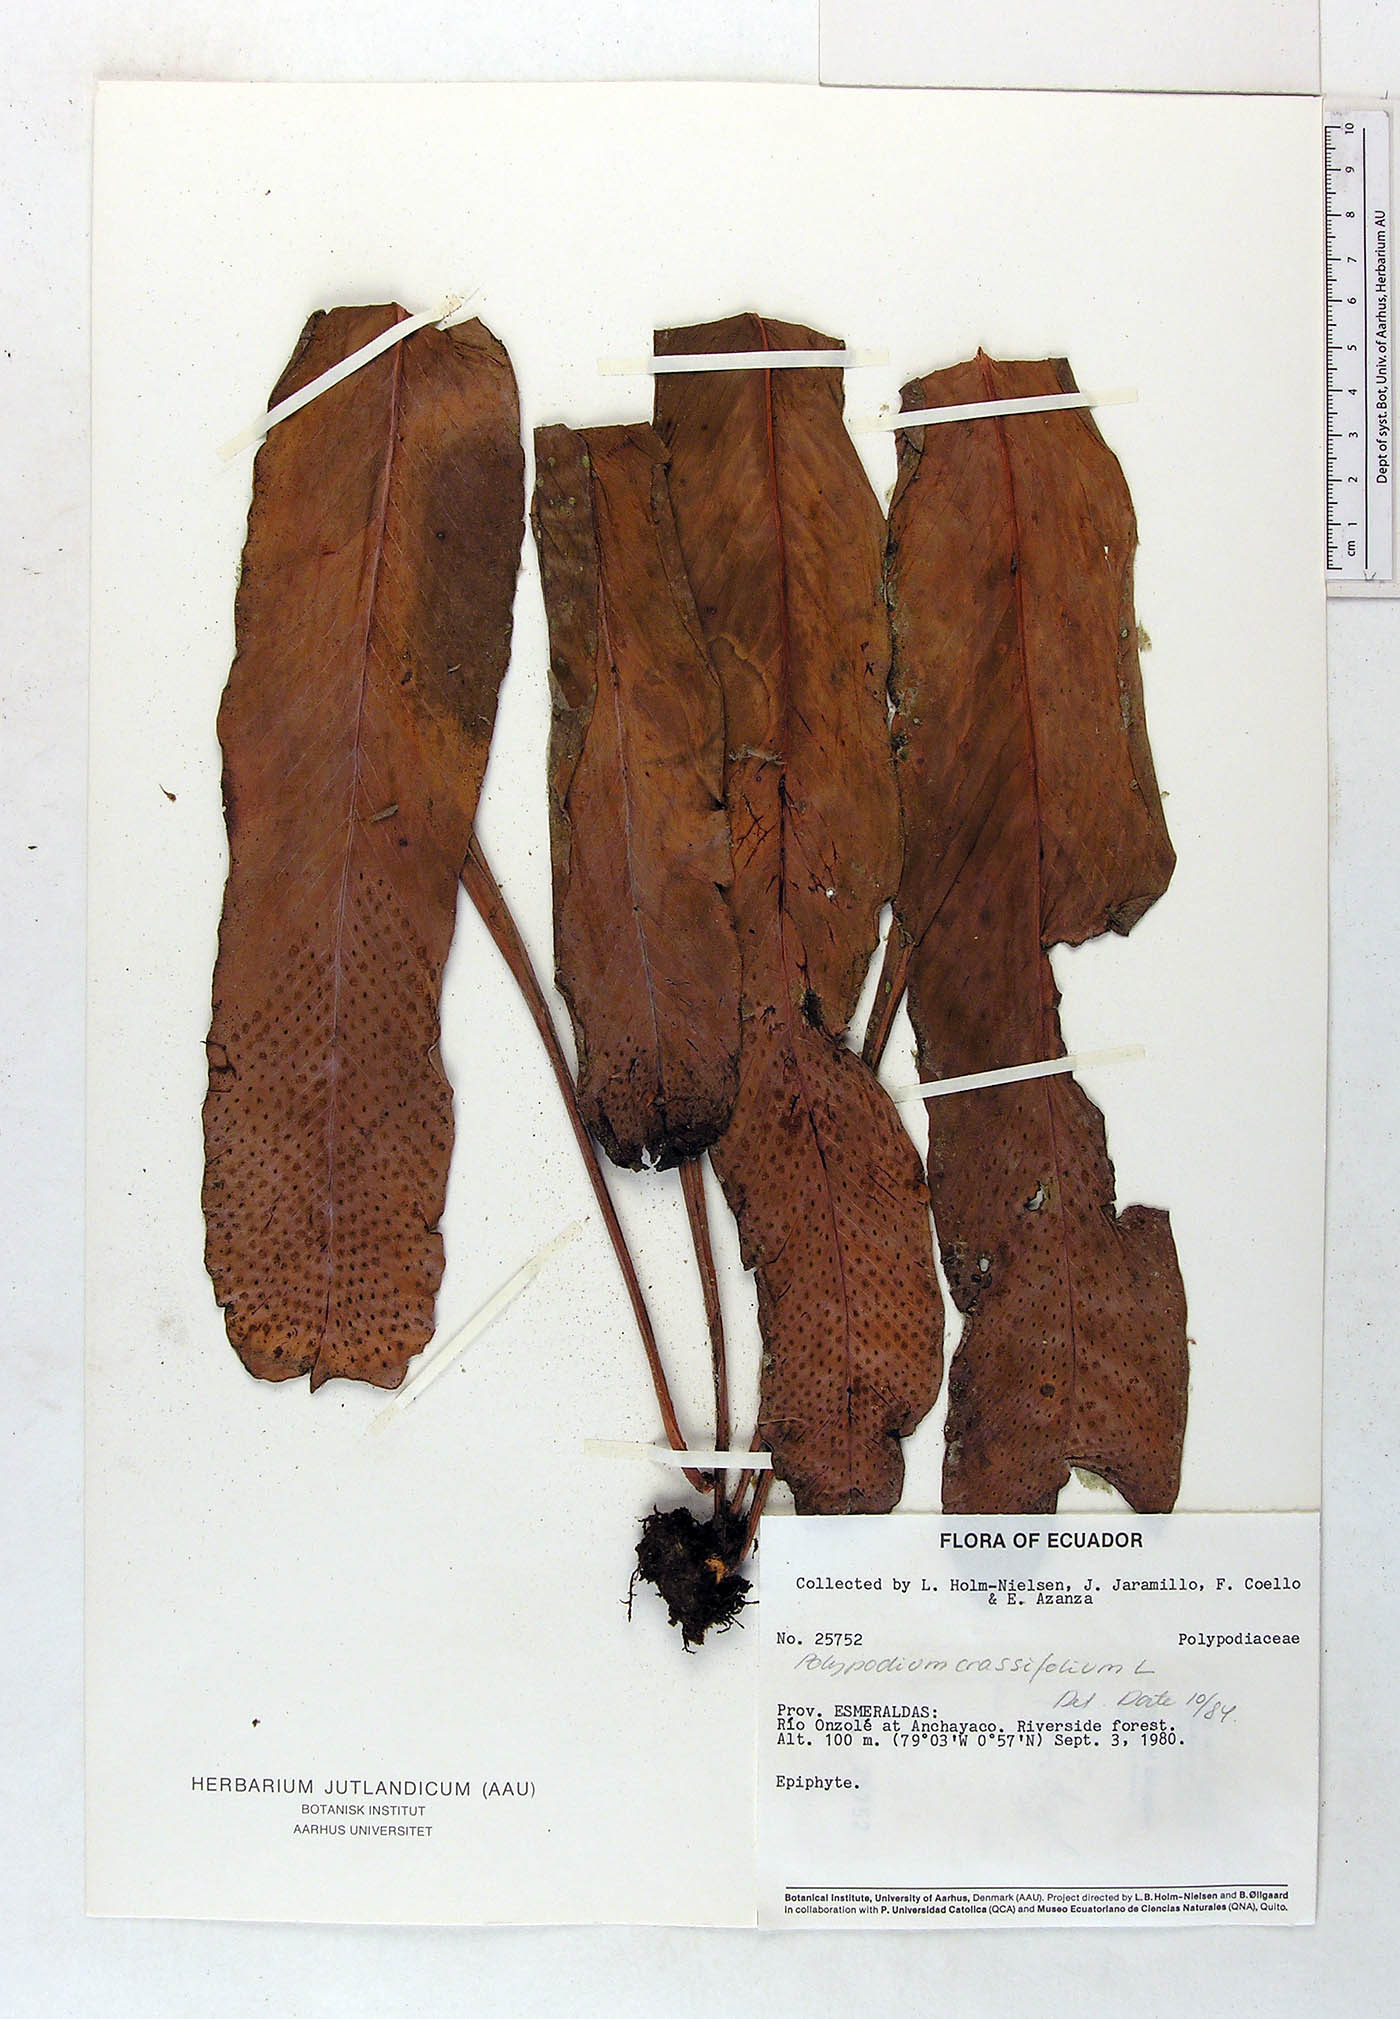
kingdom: Plantae
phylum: Tracheophyta
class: Polypodiopsida
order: Polypodiales
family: Polypodiaceae
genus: Niphidium
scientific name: Niphidium crassifolium
